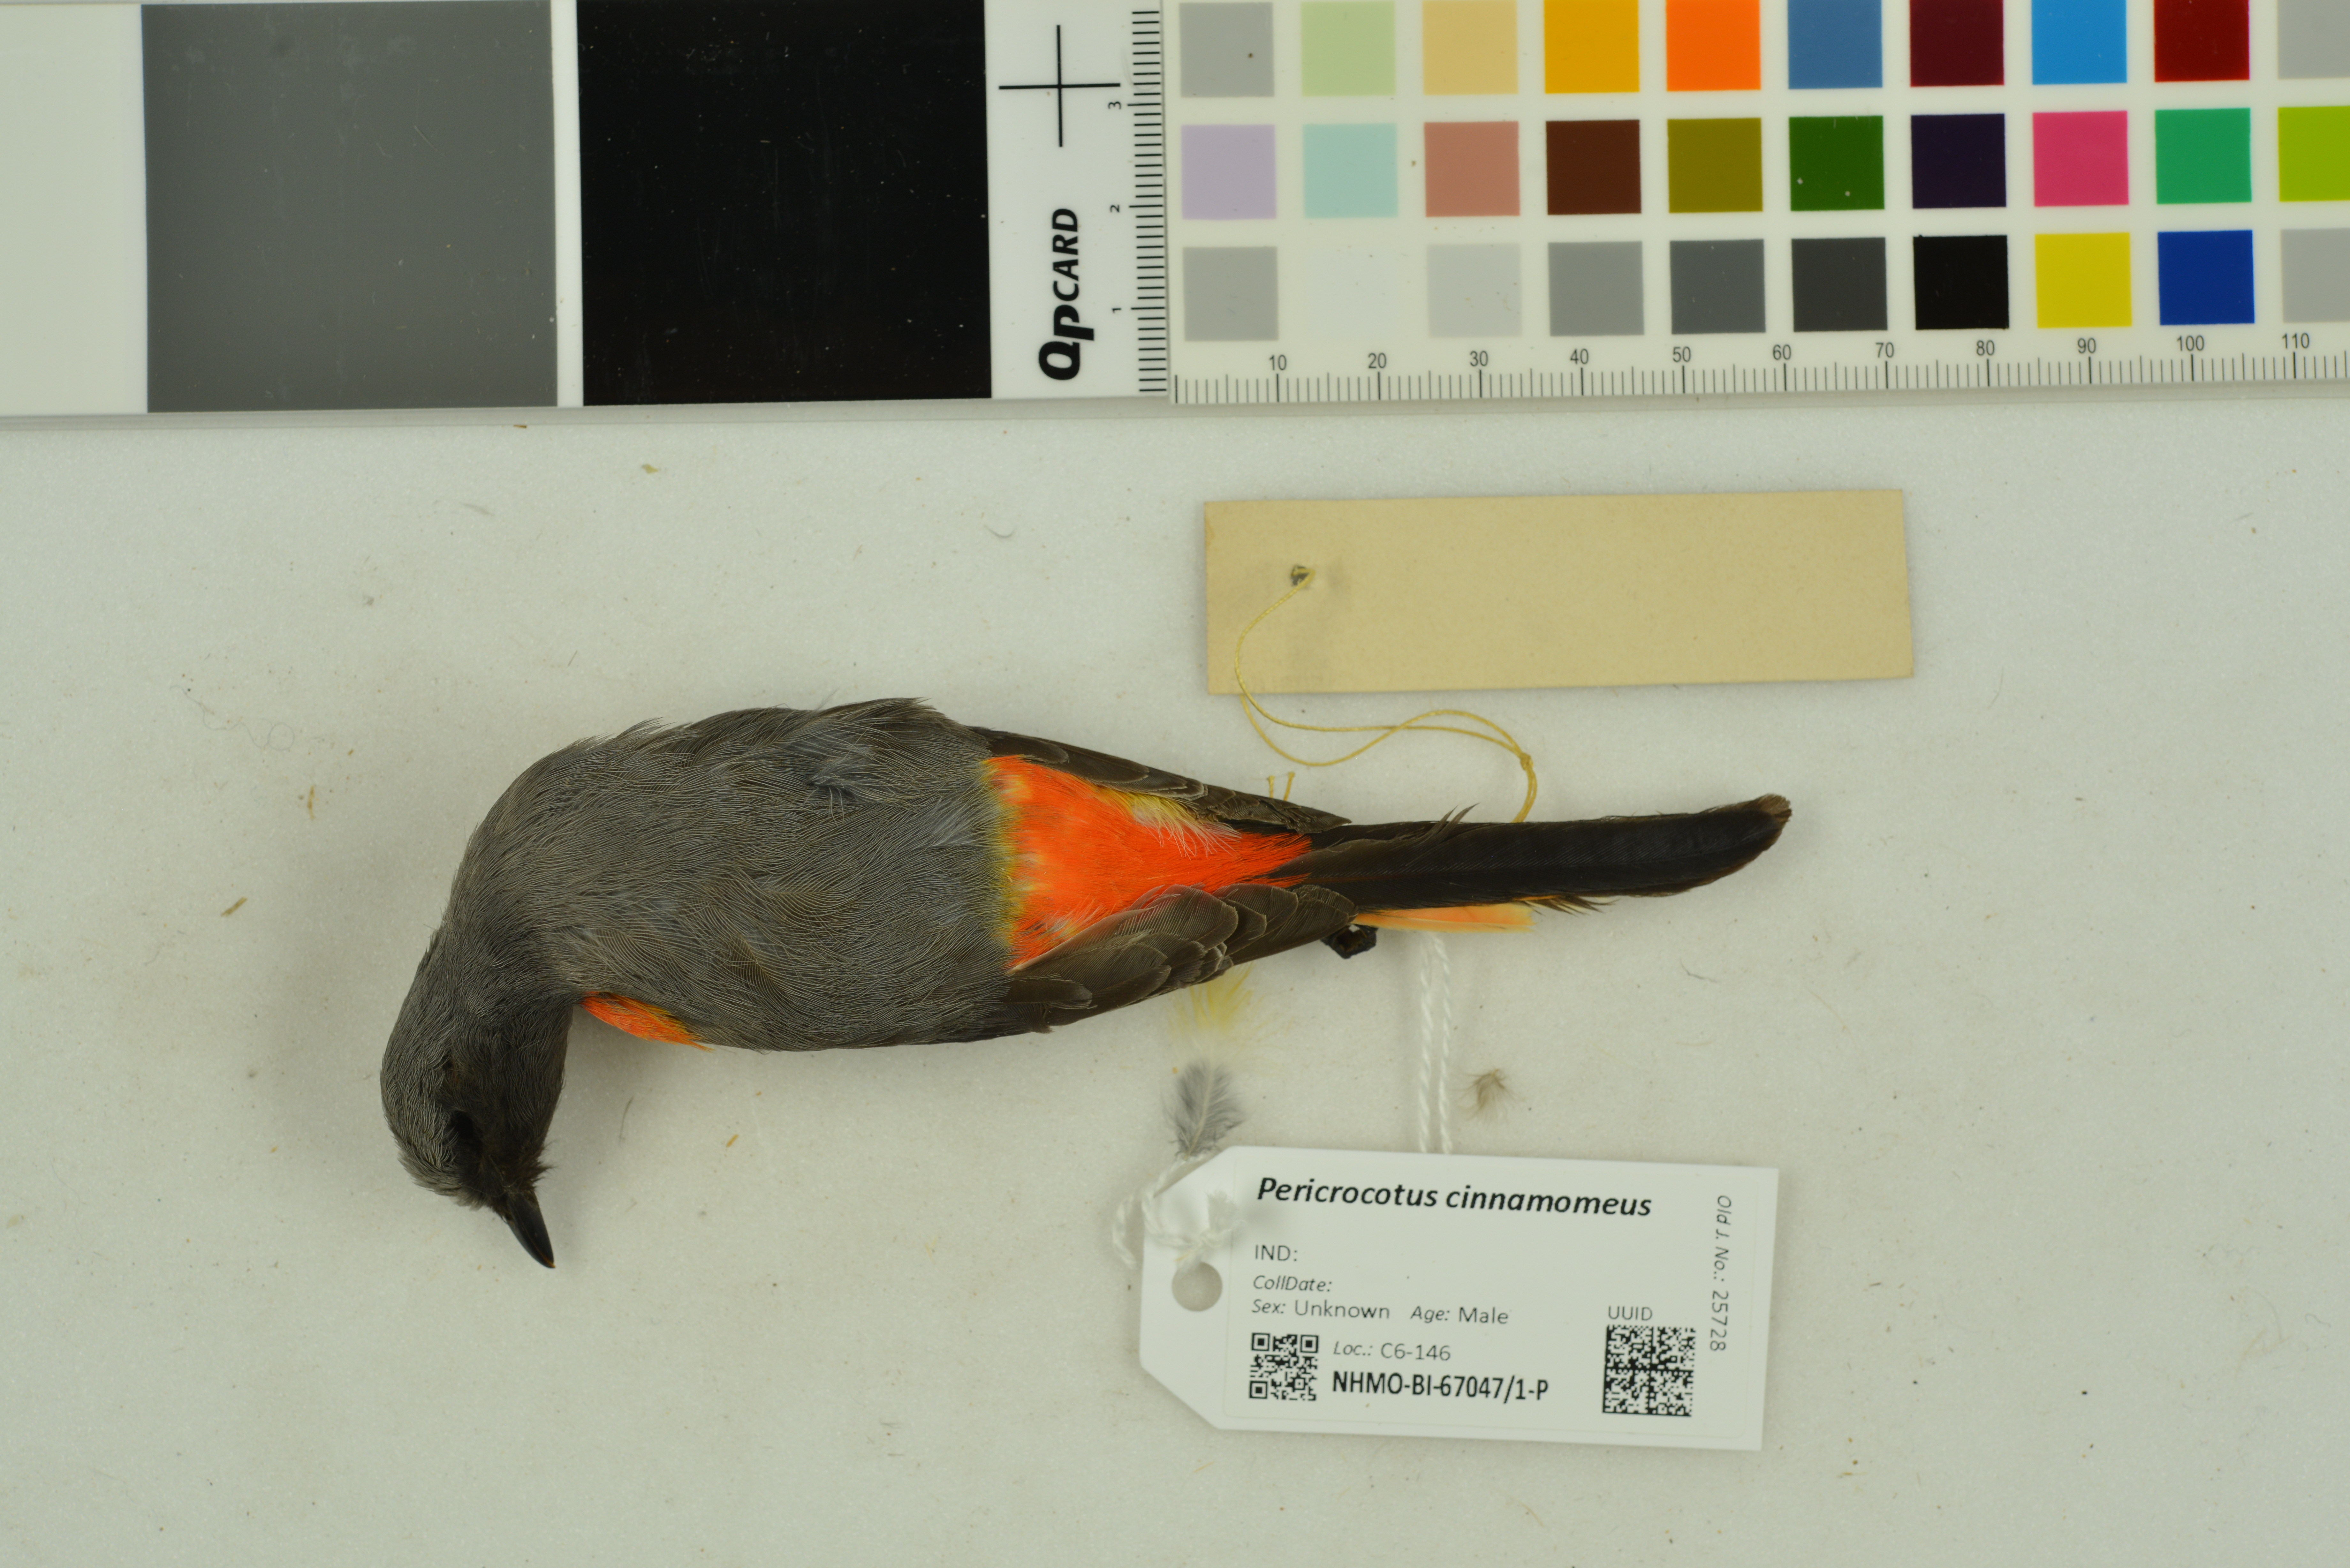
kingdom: Animalia
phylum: Chordata
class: Aves
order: Passeriformes
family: Campephagidae
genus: Pericrocotus
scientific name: Pericrocotus cinnamomeus
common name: Small minivet
